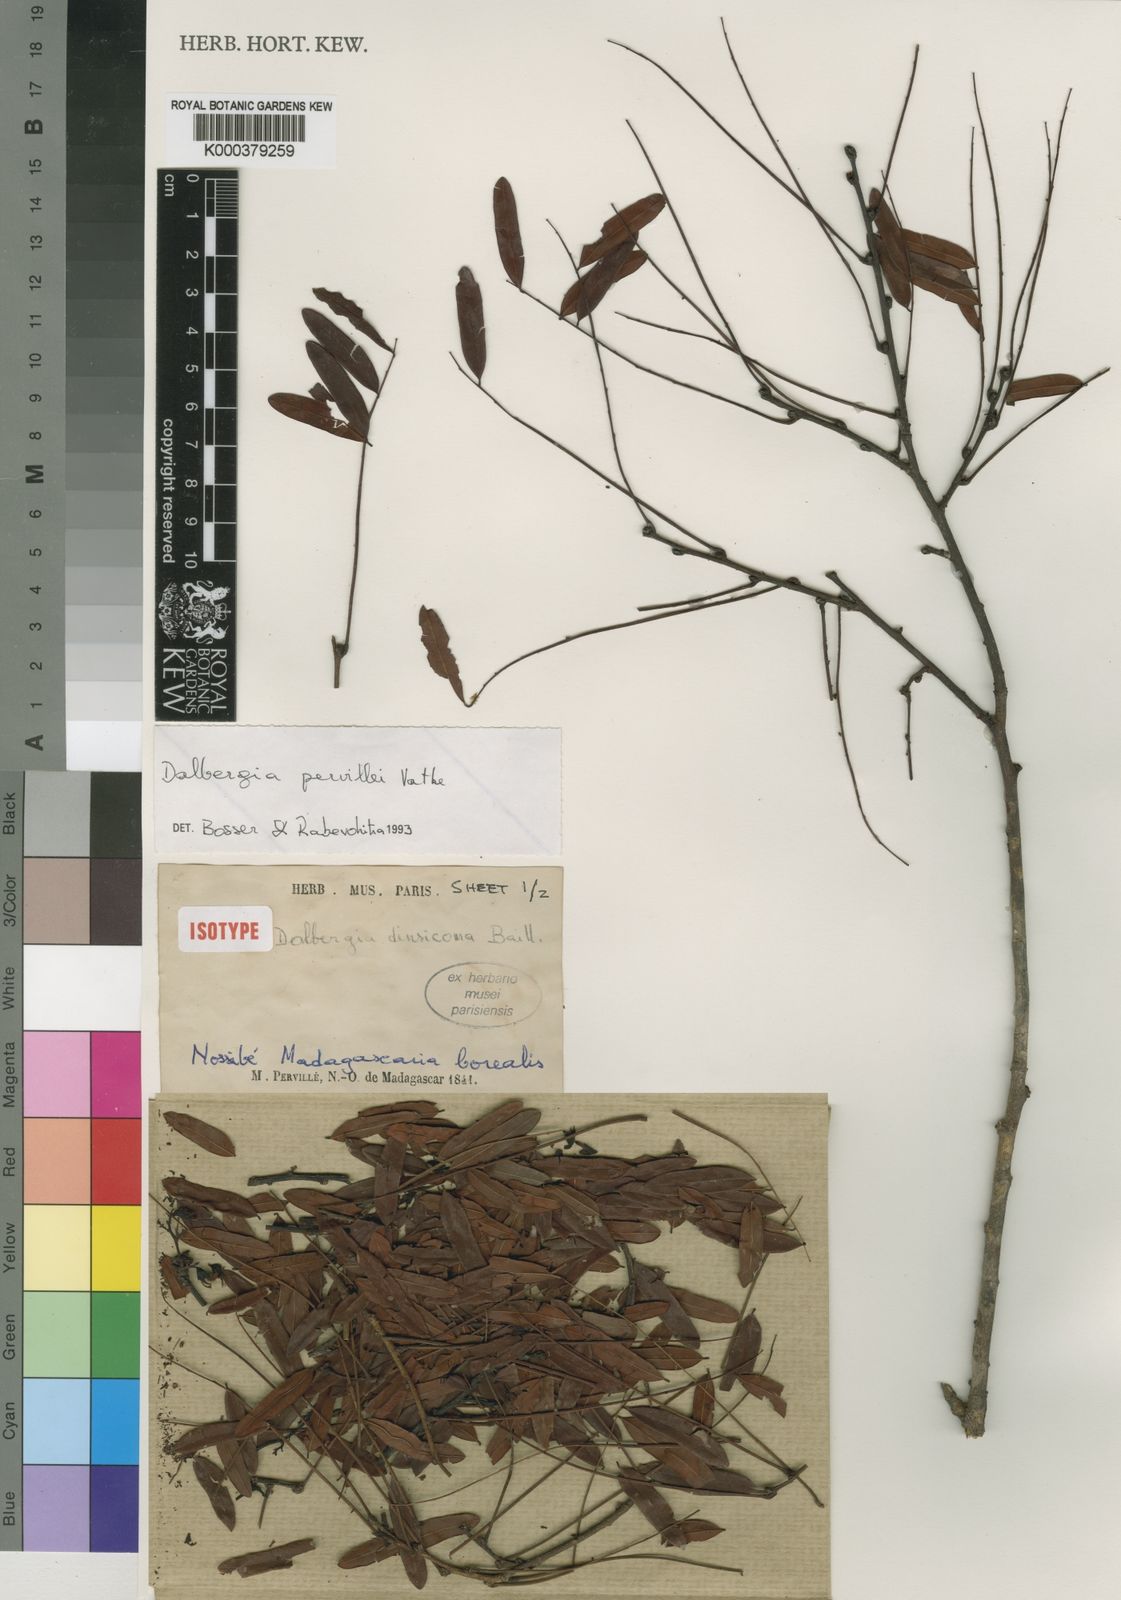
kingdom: Plantae
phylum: Tracheophyta
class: Magnoliopsida
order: Fabales
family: Fabaceae
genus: Dalbergia
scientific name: Dalbergia pervillei
